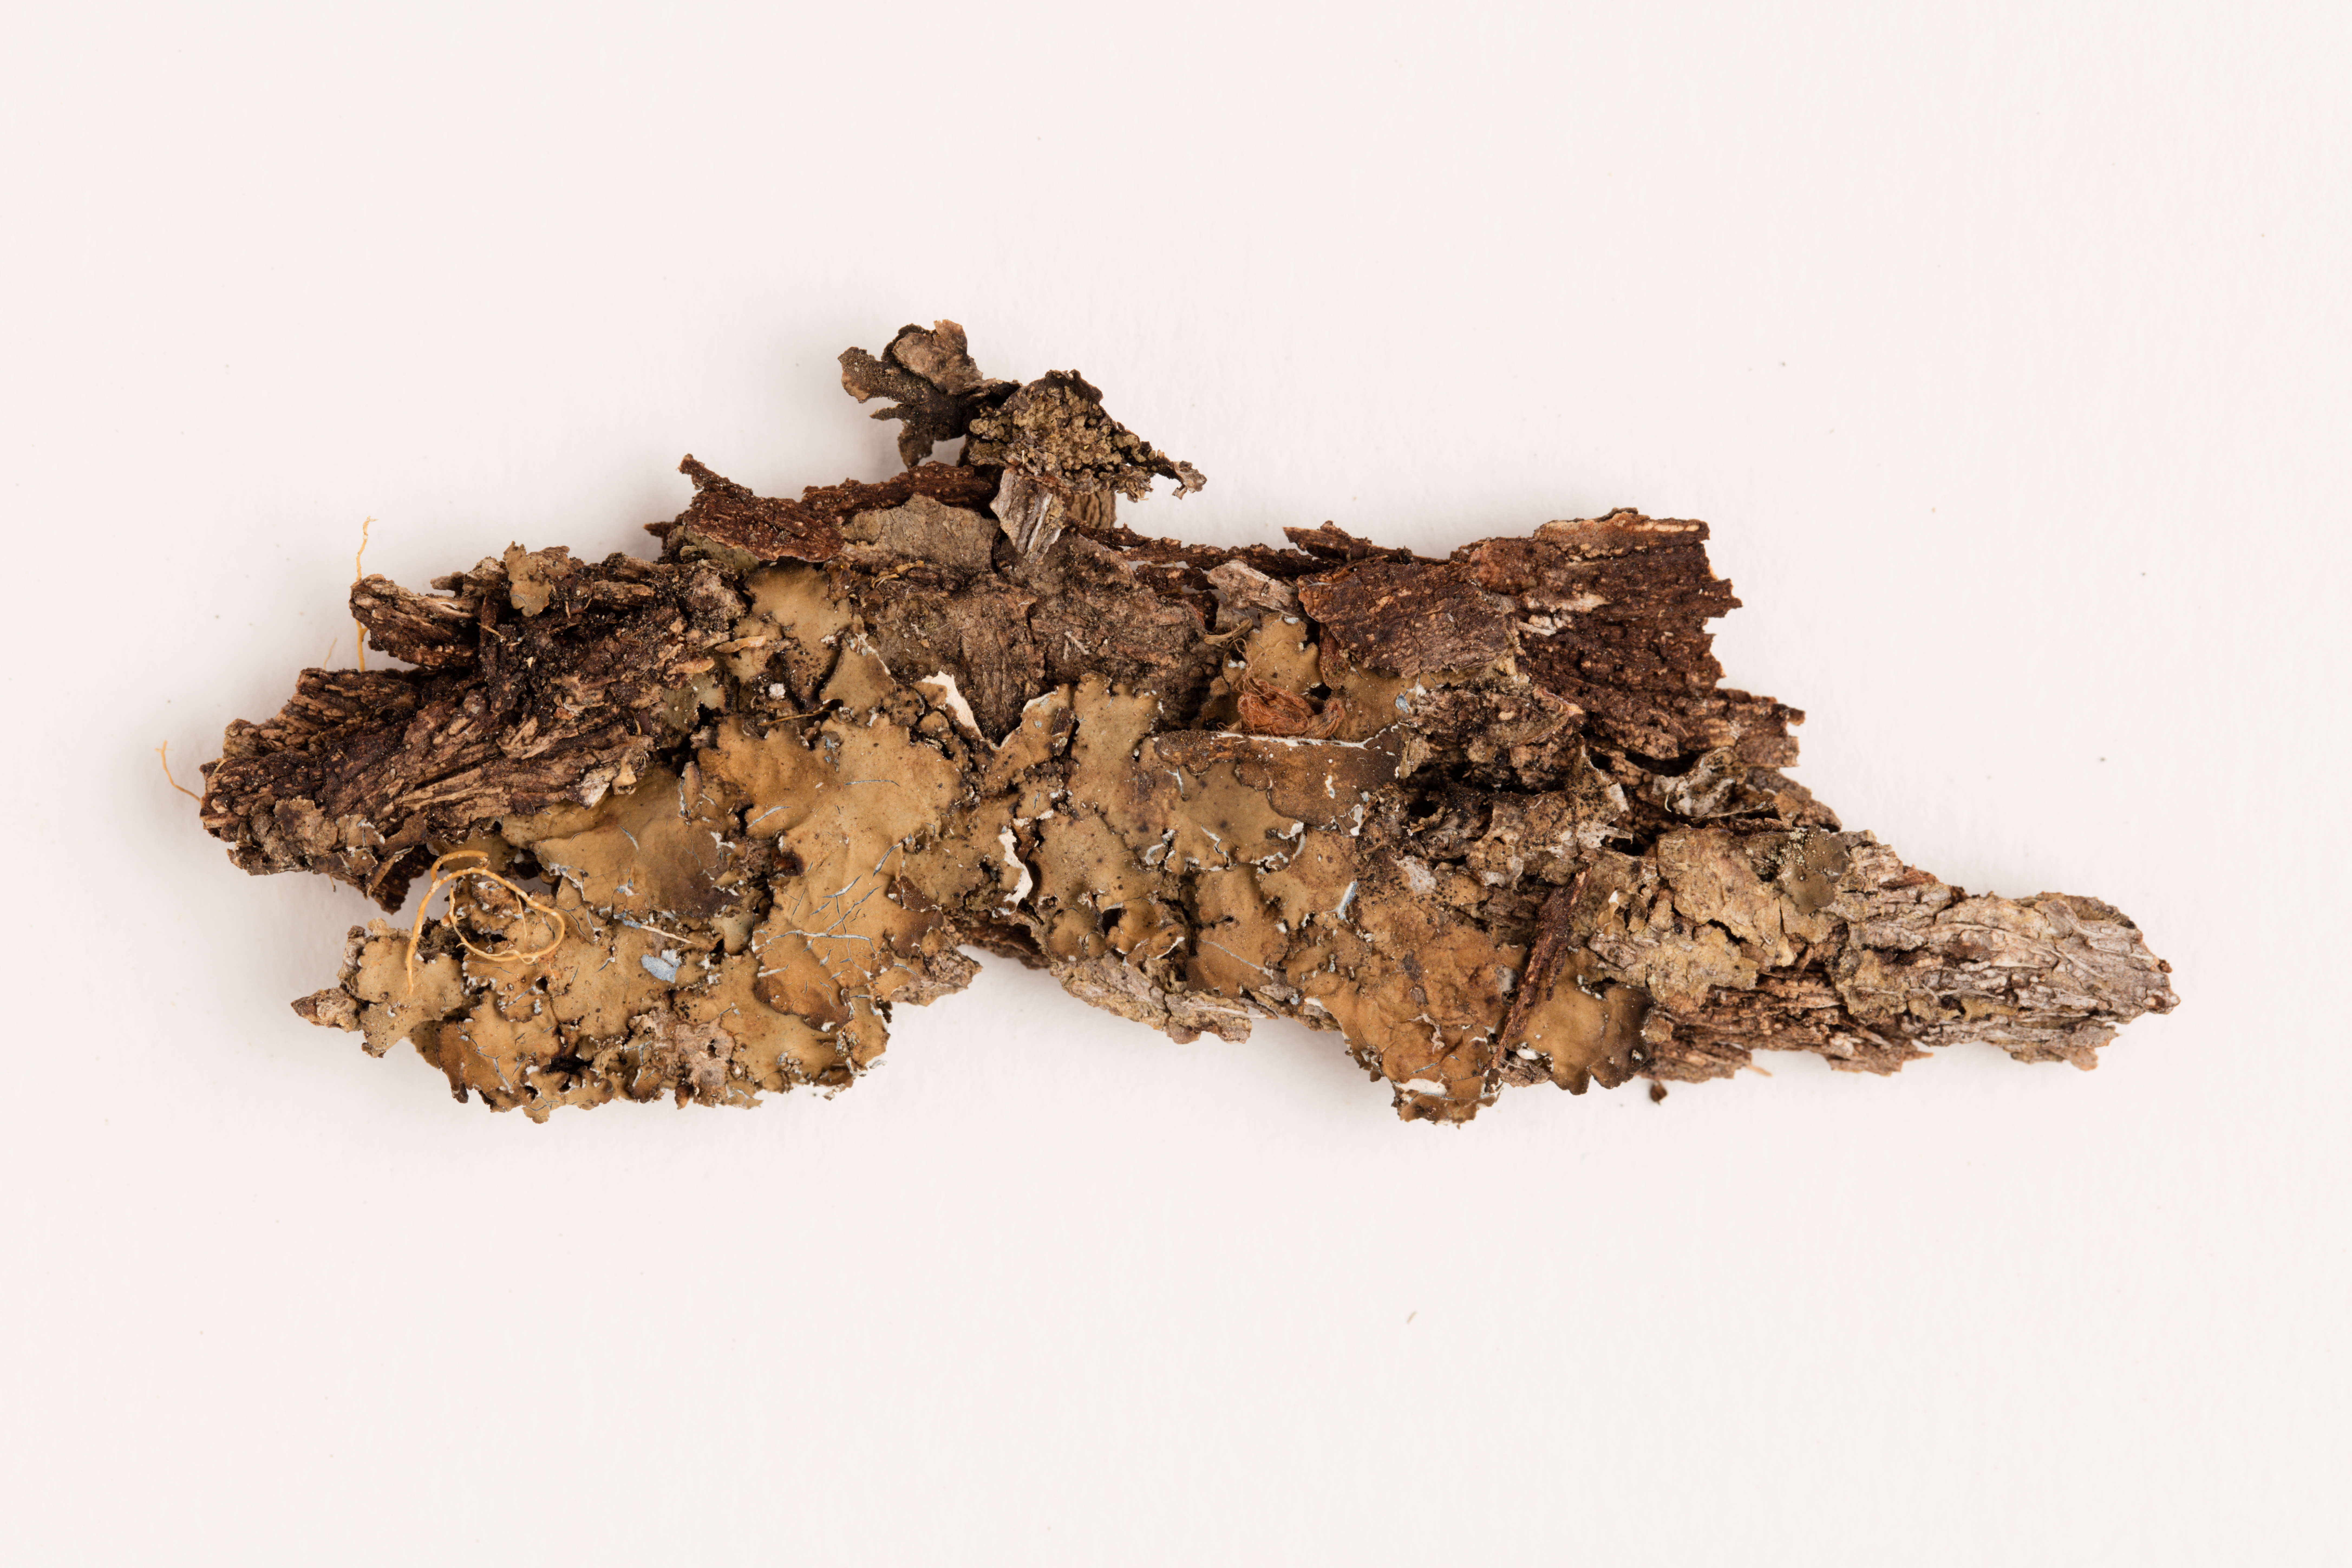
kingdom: Fungi
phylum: Ascomycota
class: Lecanoromycetes
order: Peltigerales
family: Lobariaceae
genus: Pseudocyphellaria
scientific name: Pseudocyphellaria coriifolia
